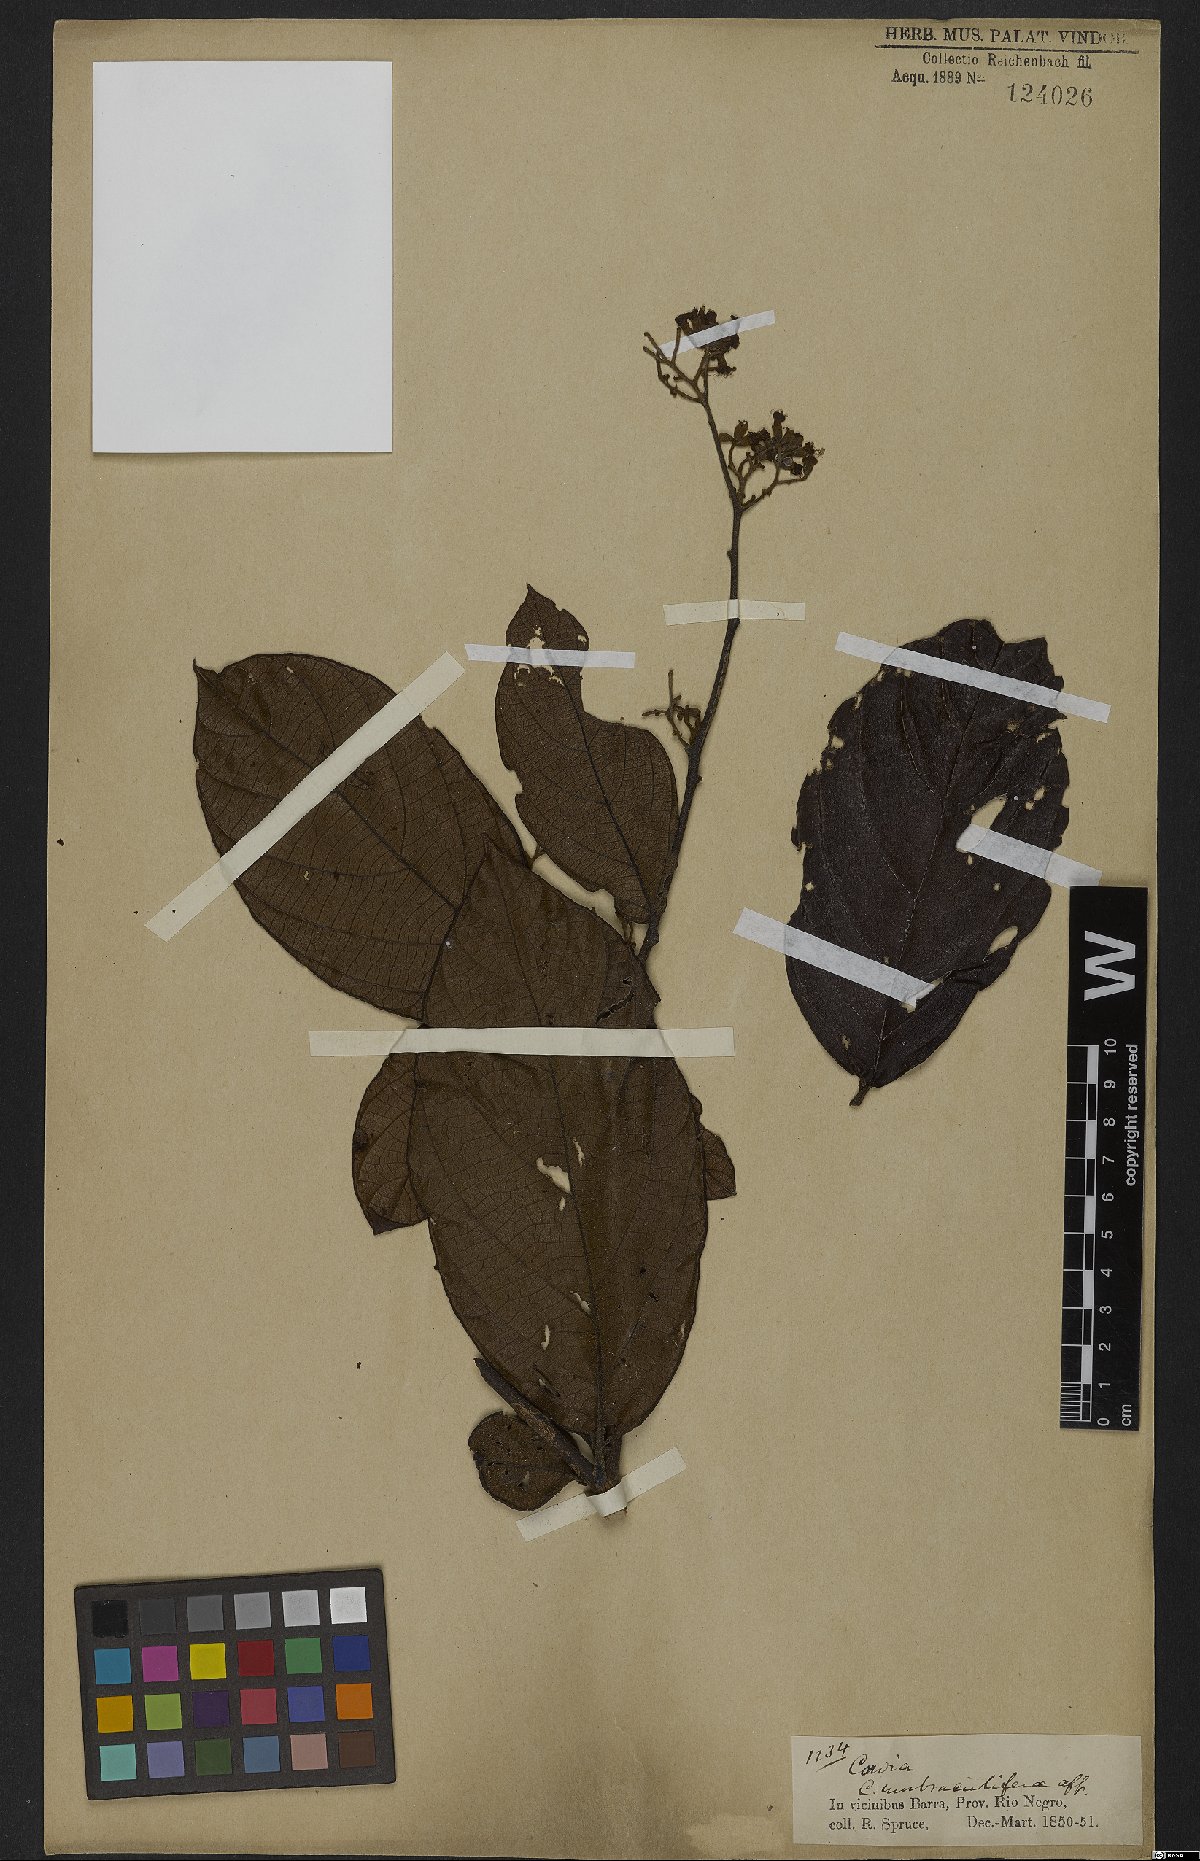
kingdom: Plantae
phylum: Tracheophyta
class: Magnoliopsida
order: Boraginales
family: Cordiaceae
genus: Cordia
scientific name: Cordia tetrandra
